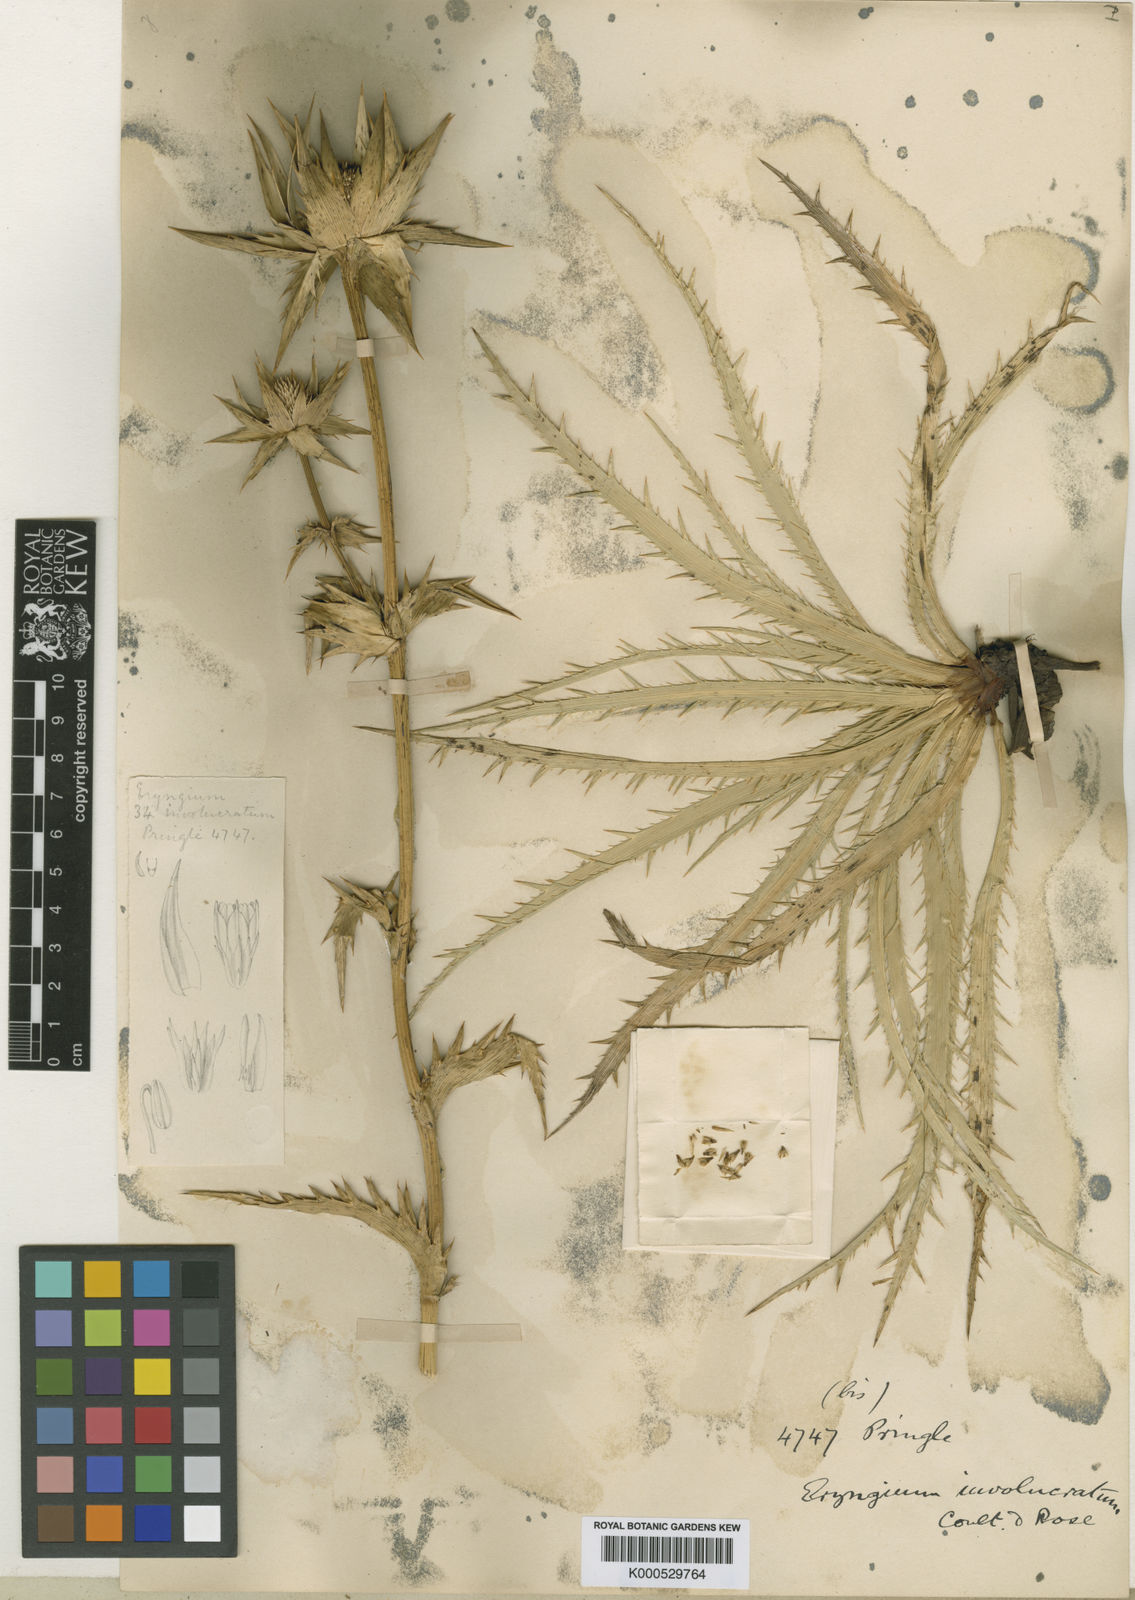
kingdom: Plantae
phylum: Tracheophyta
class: Magnoliopsida
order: Apiales
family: Apiaceae
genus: Eryngium
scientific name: Eryngium monocephalum
